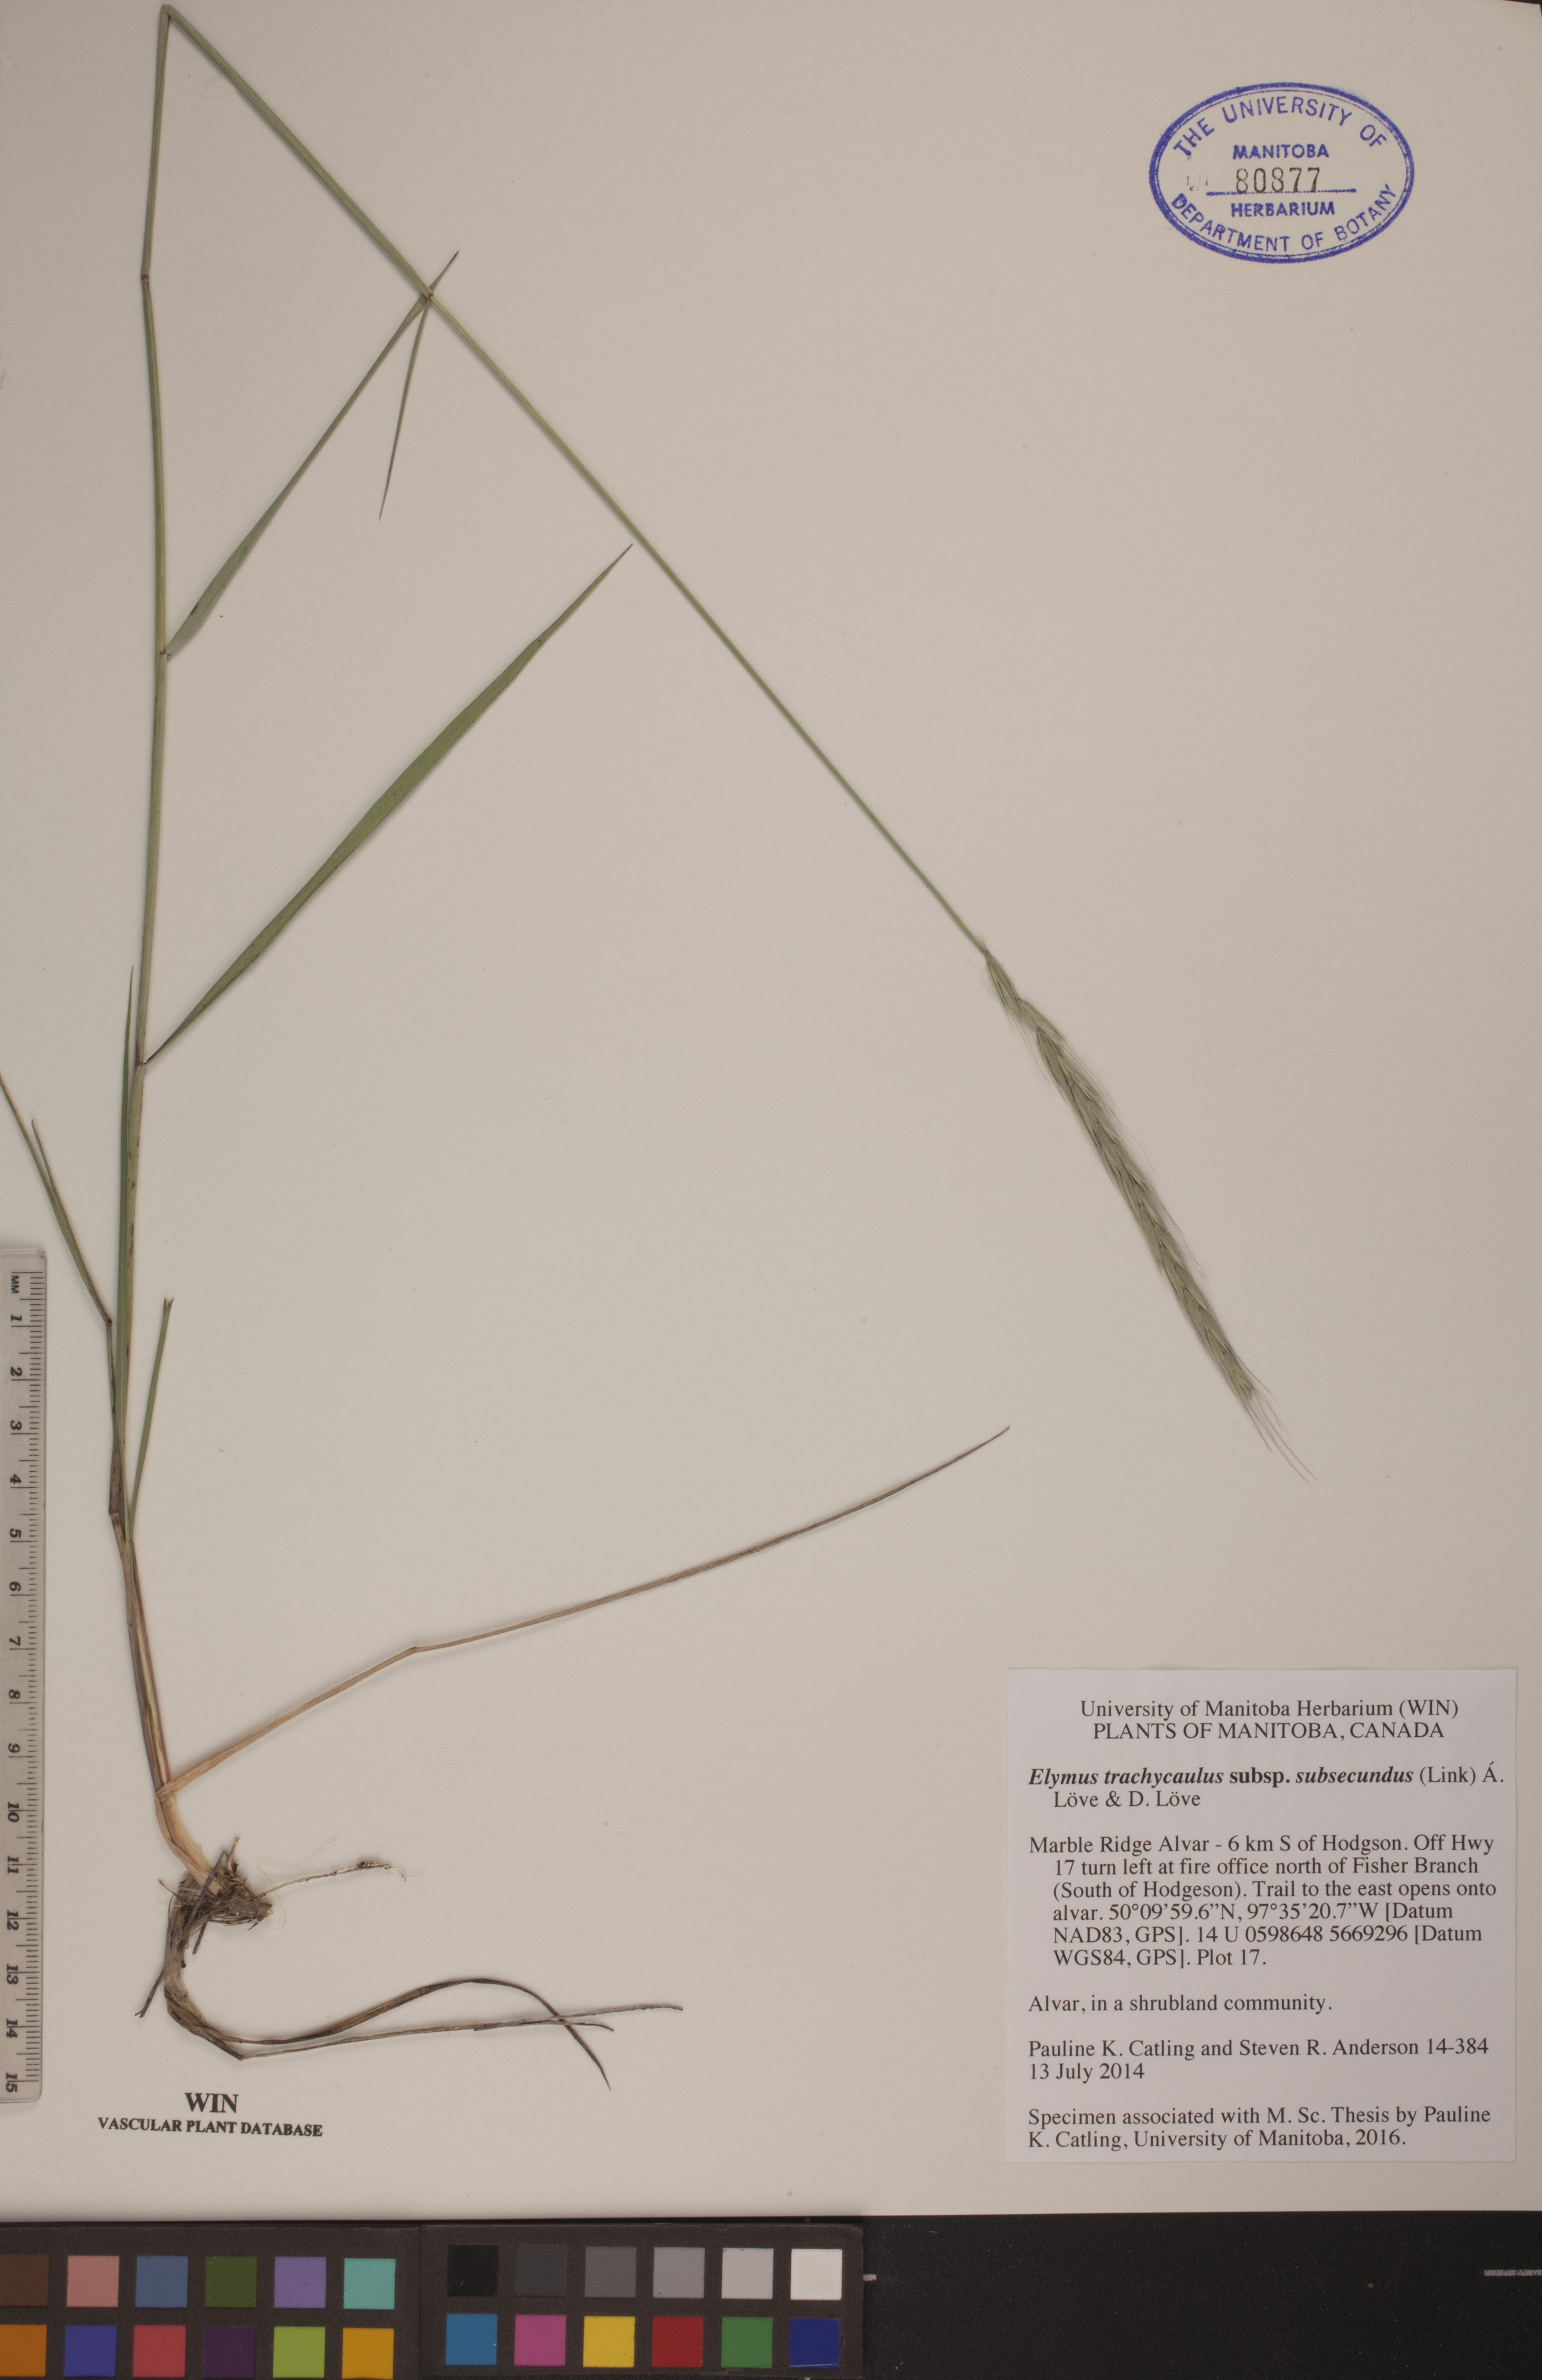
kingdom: Plantae
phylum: Tracheophyta
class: Liliopsida
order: Poales
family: Poaceae
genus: Elymus
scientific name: Elymus violaceus
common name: Arctic wheatgrass
